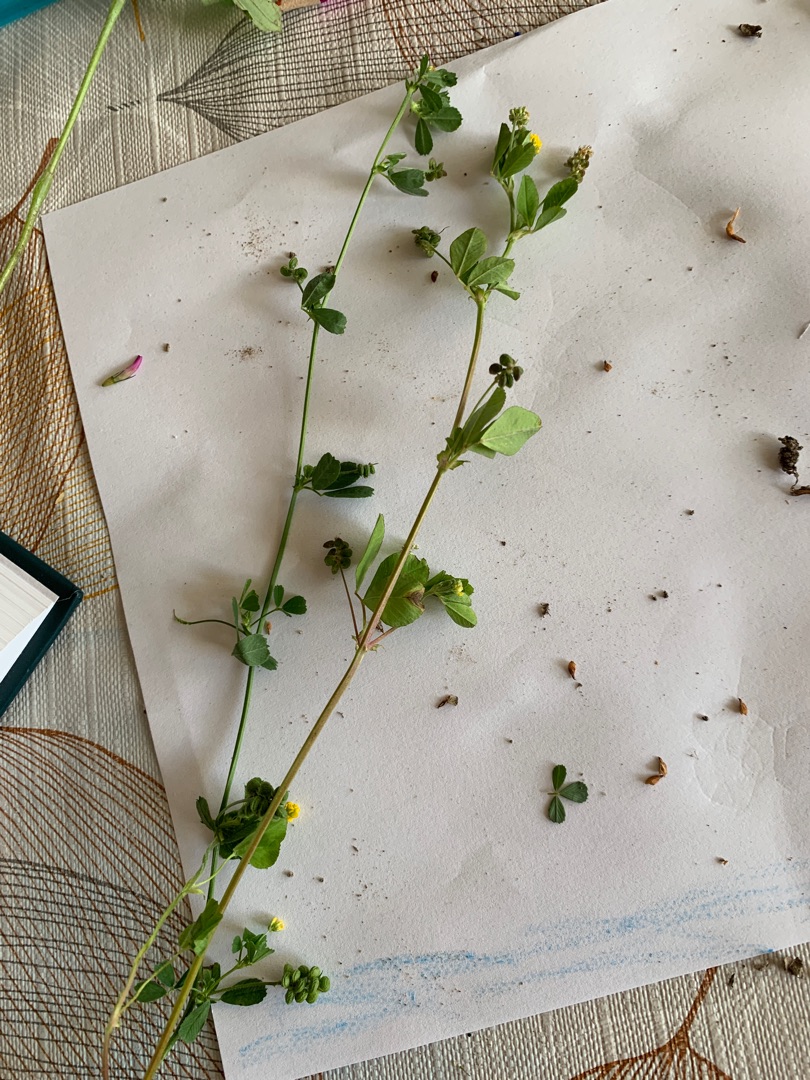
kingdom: Plantae
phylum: Tracheophyta
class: Magnoliopsida
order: Fabales
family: Fabaceae
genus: Medicago
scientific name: Medicago lupulina
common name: Humle-sneglebælg
